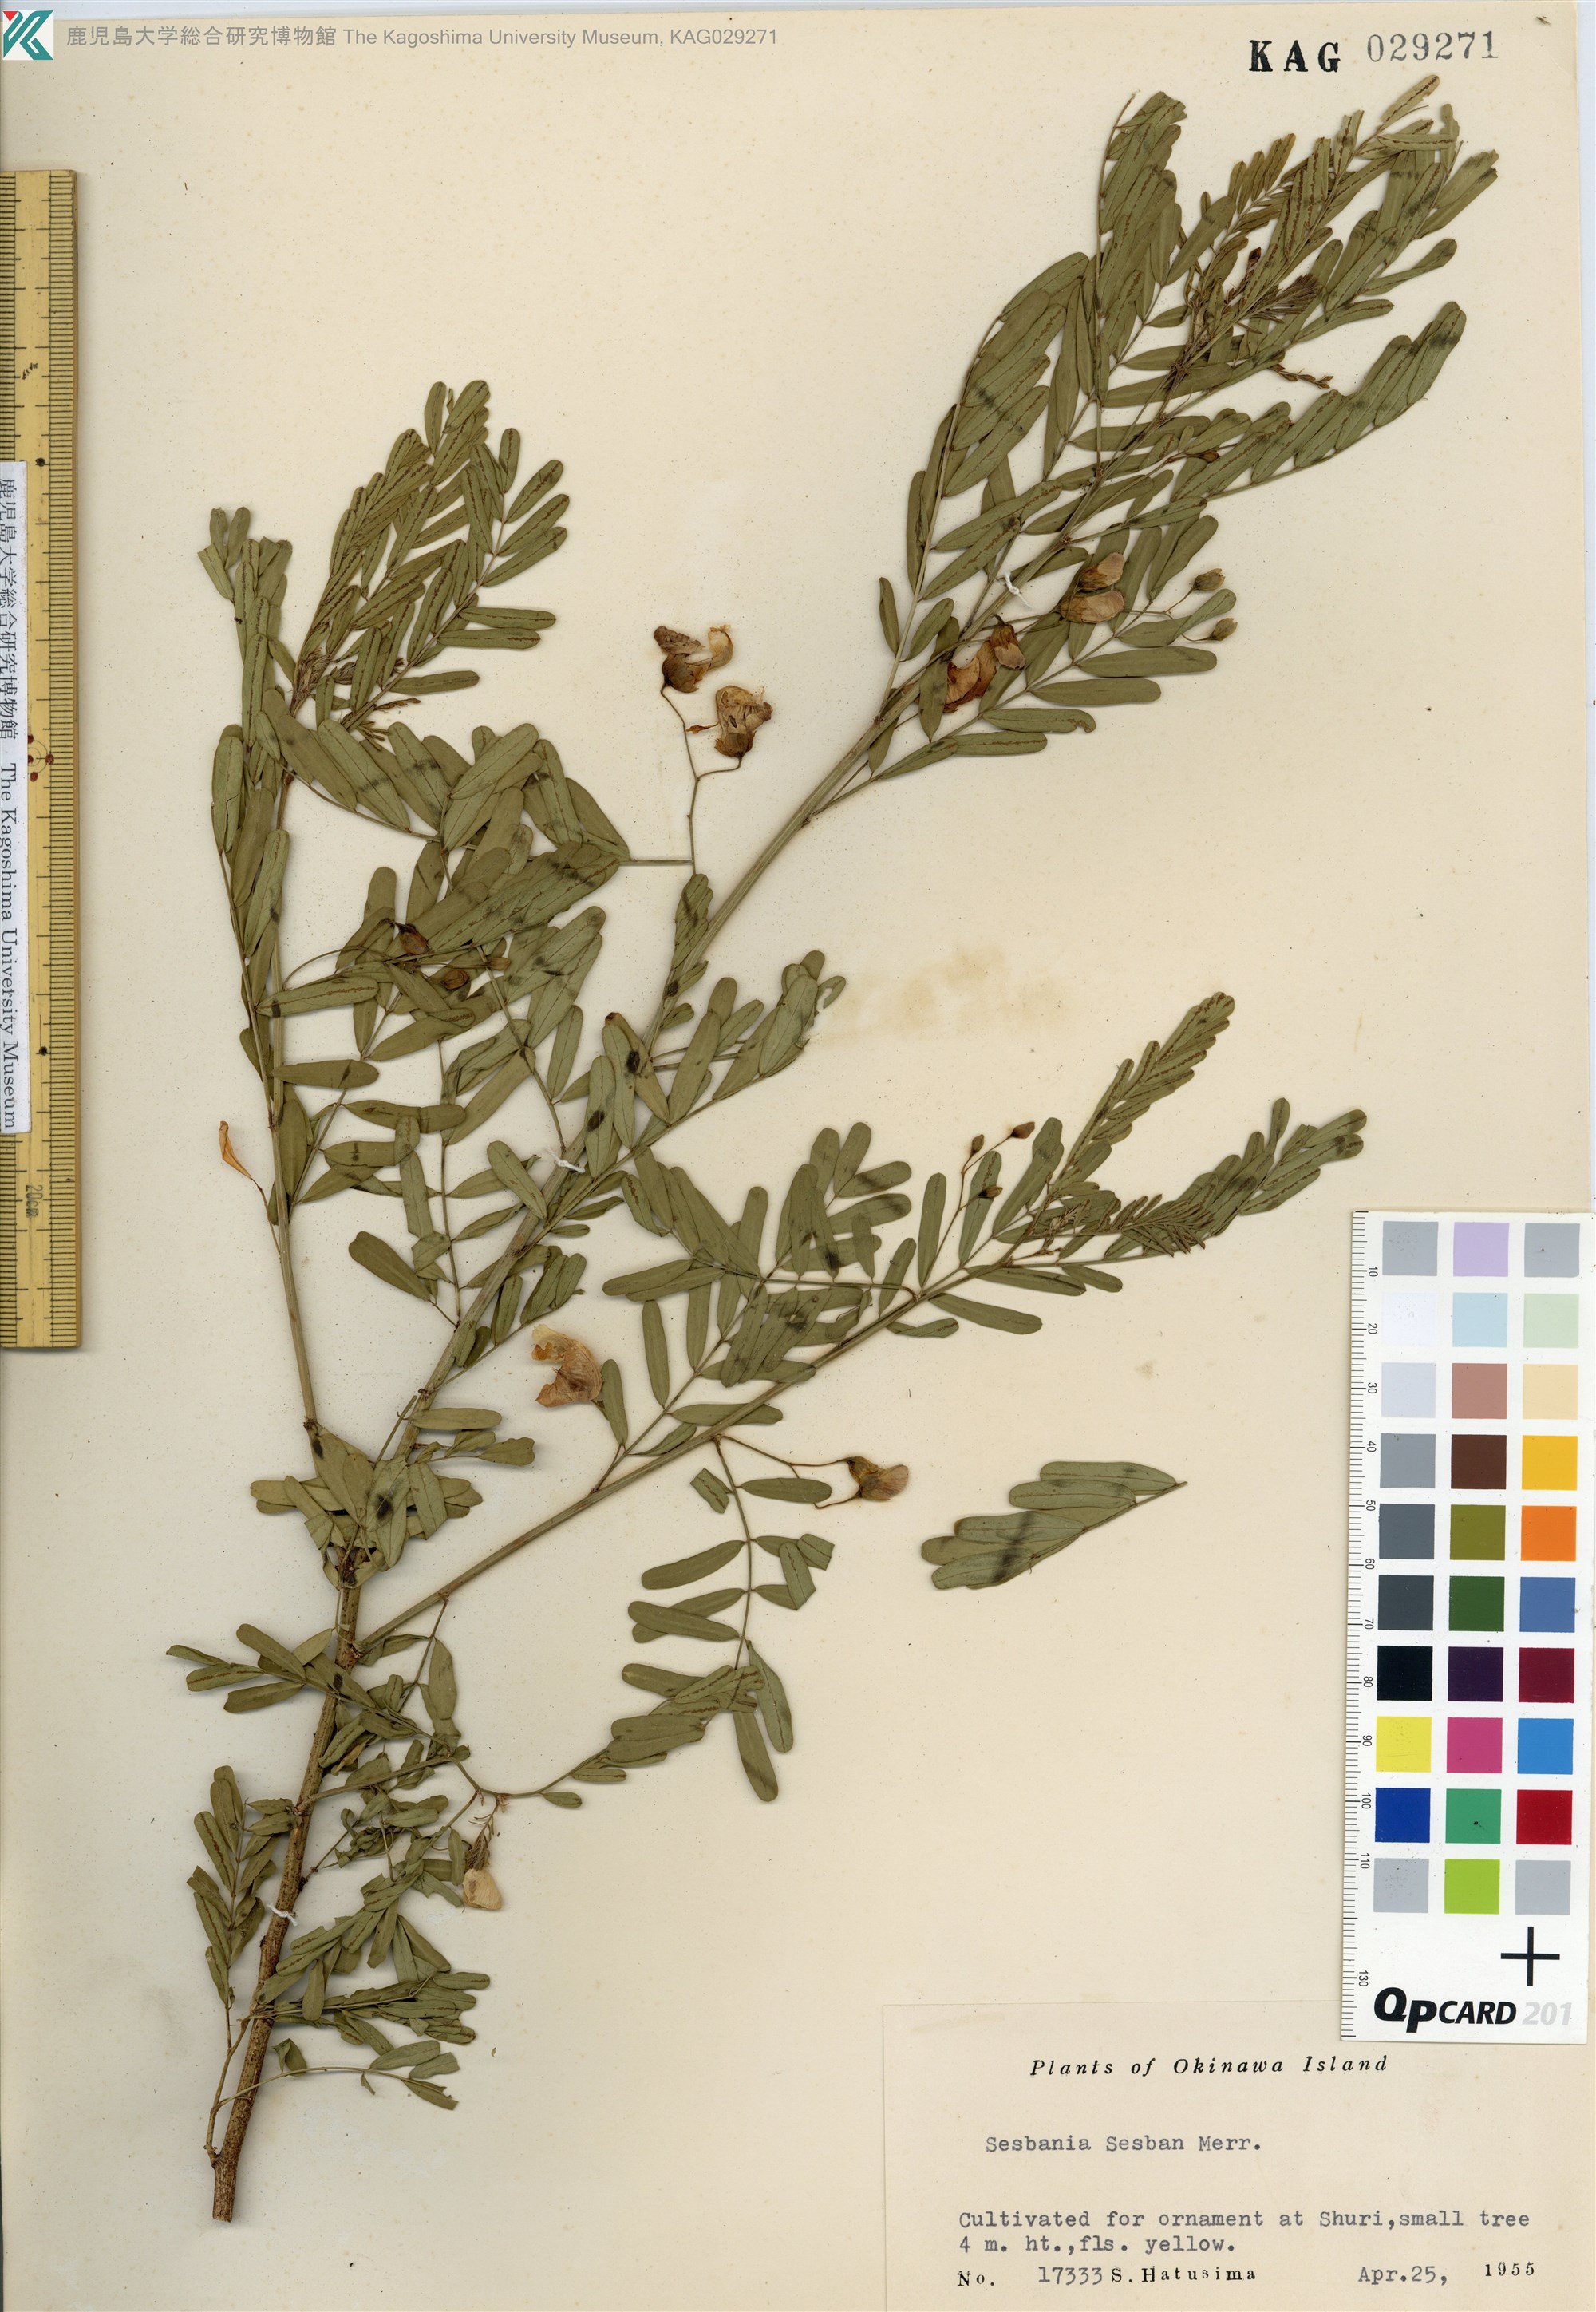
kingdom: Plantae
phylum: Tracheophyta
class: Magnoliopsida
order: Fabales
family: Fabaceae
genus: Sesbania
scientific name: Sesbania sesban
